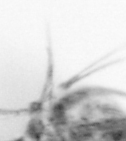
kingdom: Animalia
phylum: Arthropoda
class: Copepoda
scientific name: Copepoda
